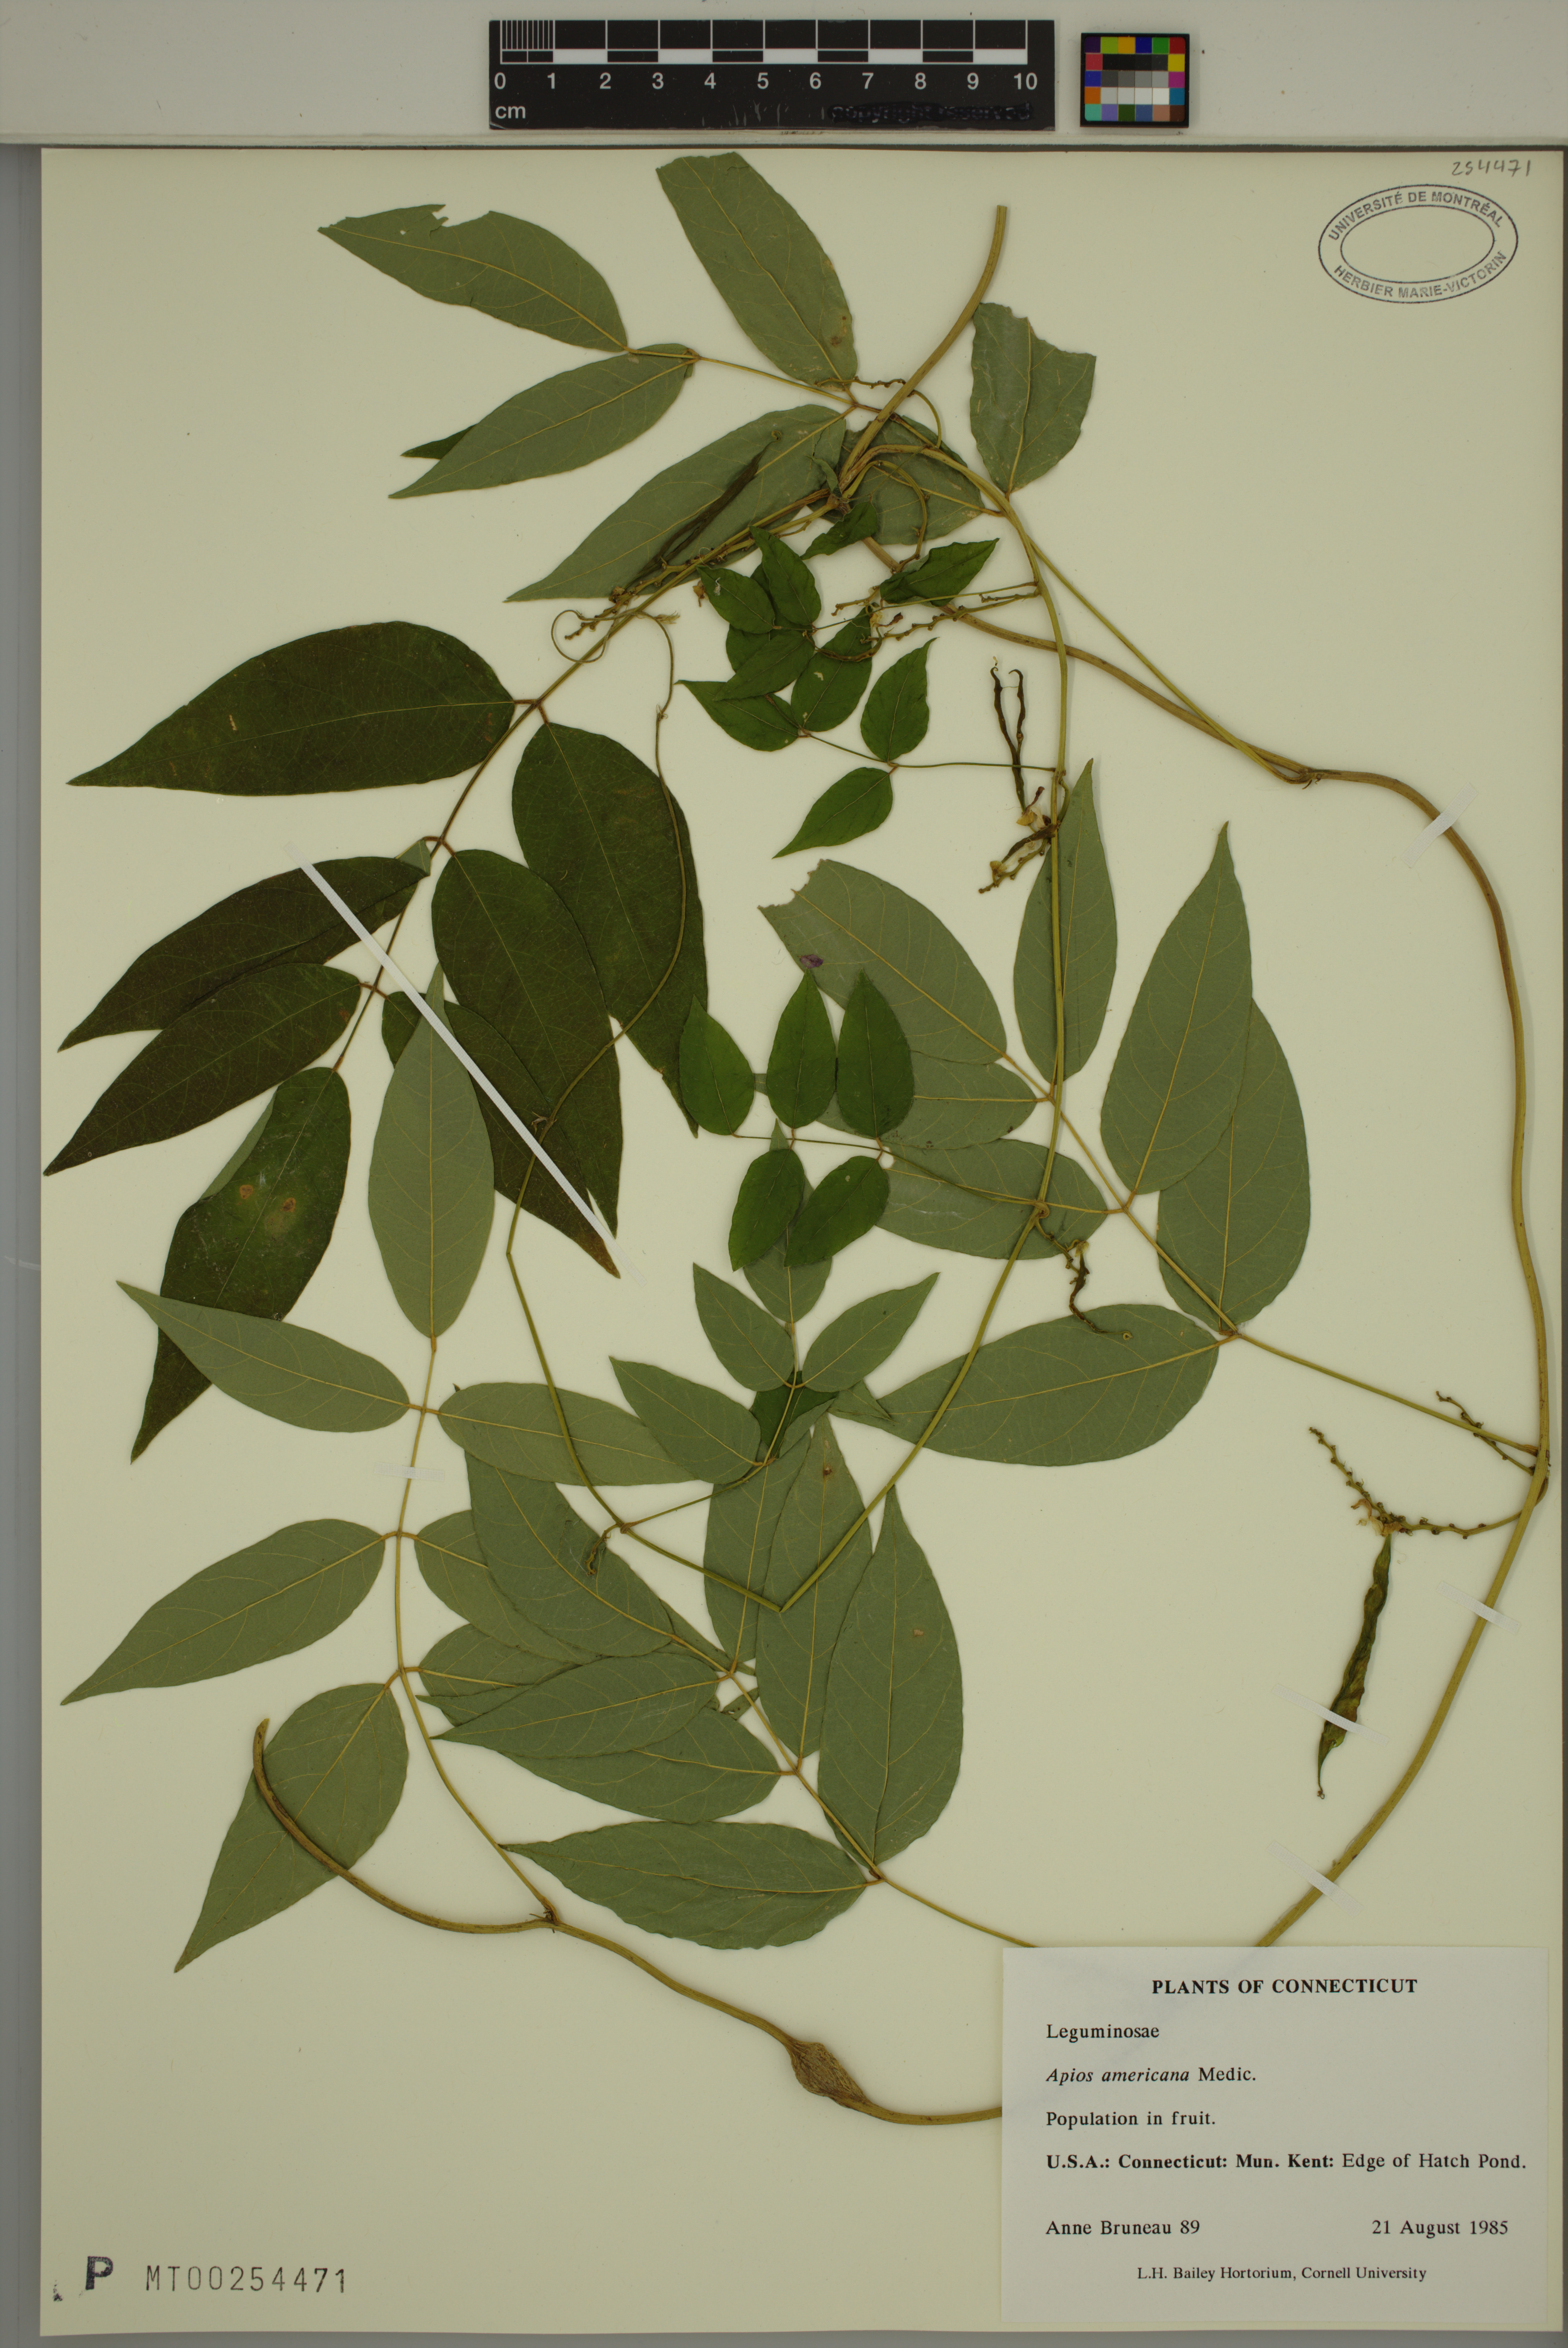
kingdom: Plantae
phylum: Tracheophyta
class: Magnoliopsida
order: Fabales
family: Fabaceae
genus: Apios
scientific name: Apios americana
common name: American potato-bean
